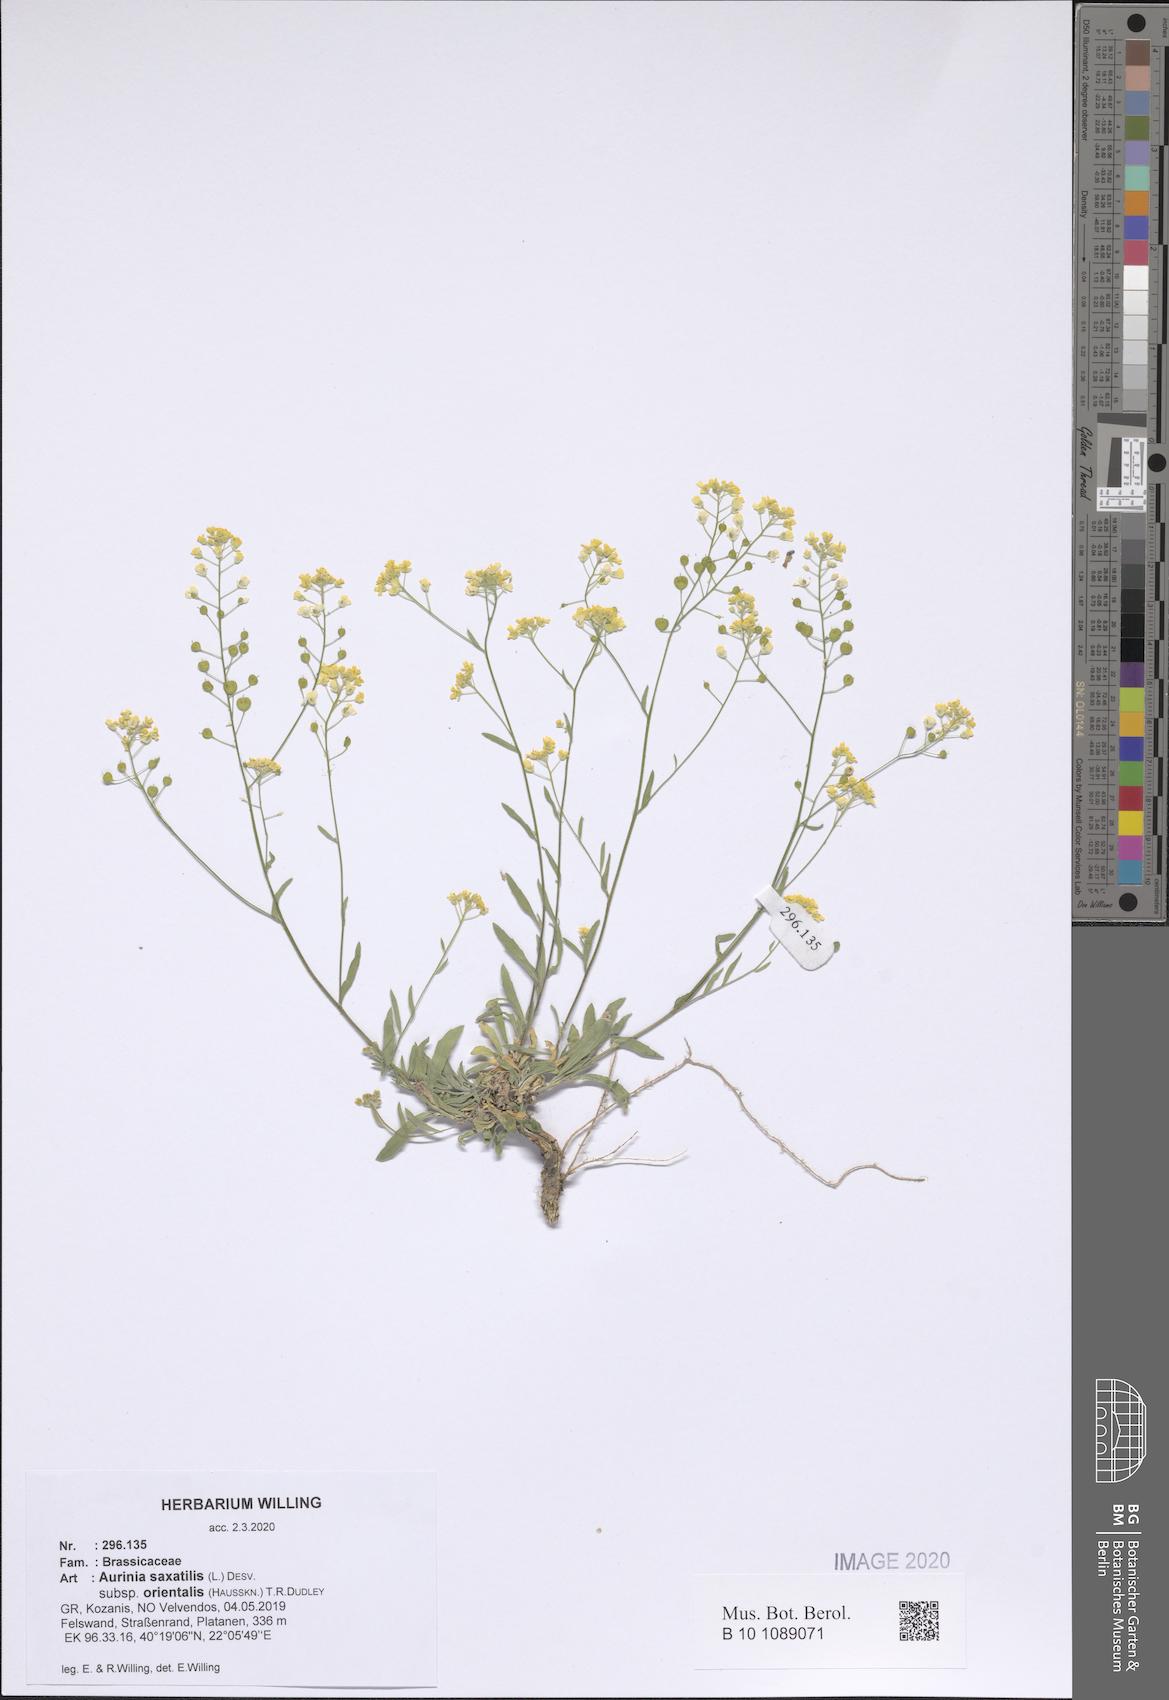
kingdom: Plantae
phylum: Tracheophyta
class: Magnoliopsida
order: Brassicales
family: Brassicaceae
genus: Aurinia
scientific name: Aurinia saxatilis
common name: Golden-tuft alyssum
